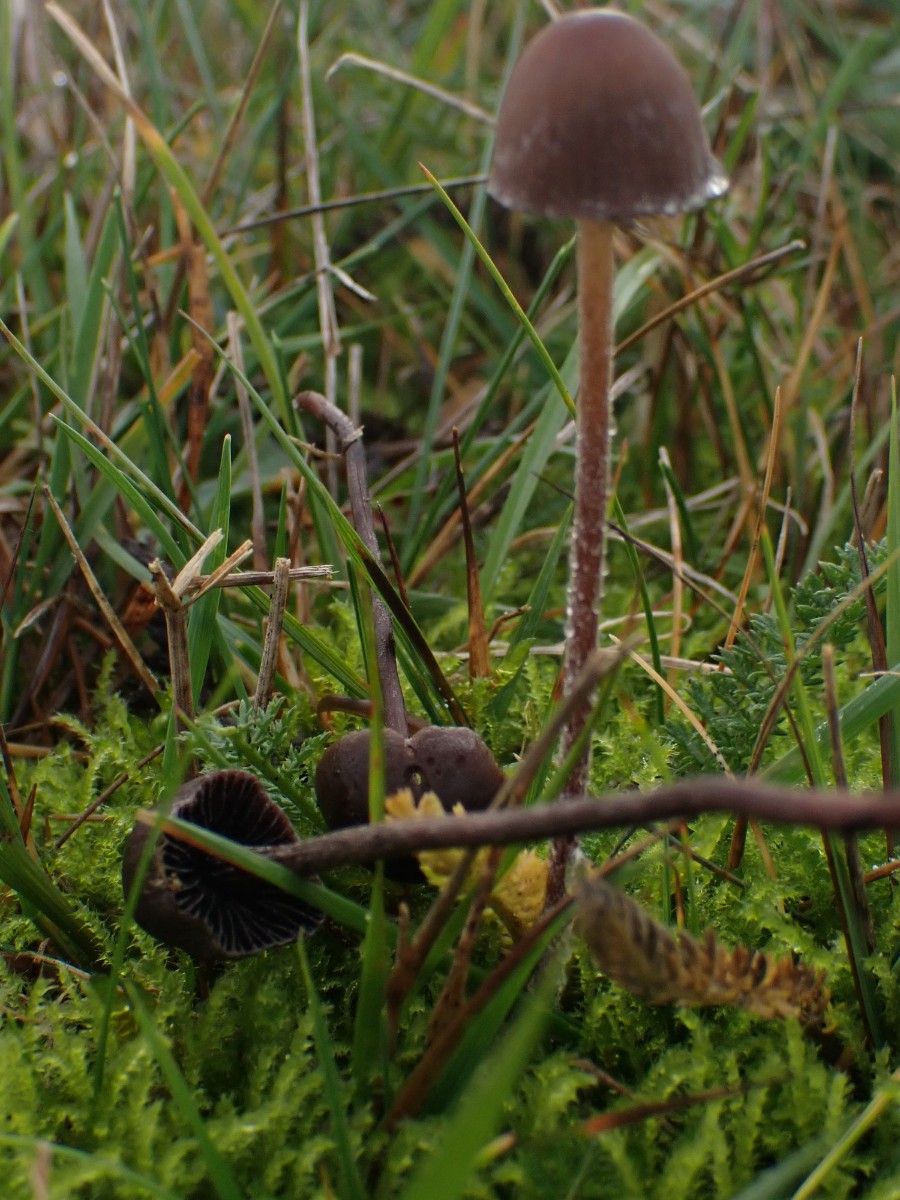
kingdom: Fungi
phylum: Basidiomycota
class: Agaricomycetes
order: Agaricales
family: Bolbitiaceae
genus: Panaeolus
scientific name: Panaeolus acuminatus
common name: høj glanshat
